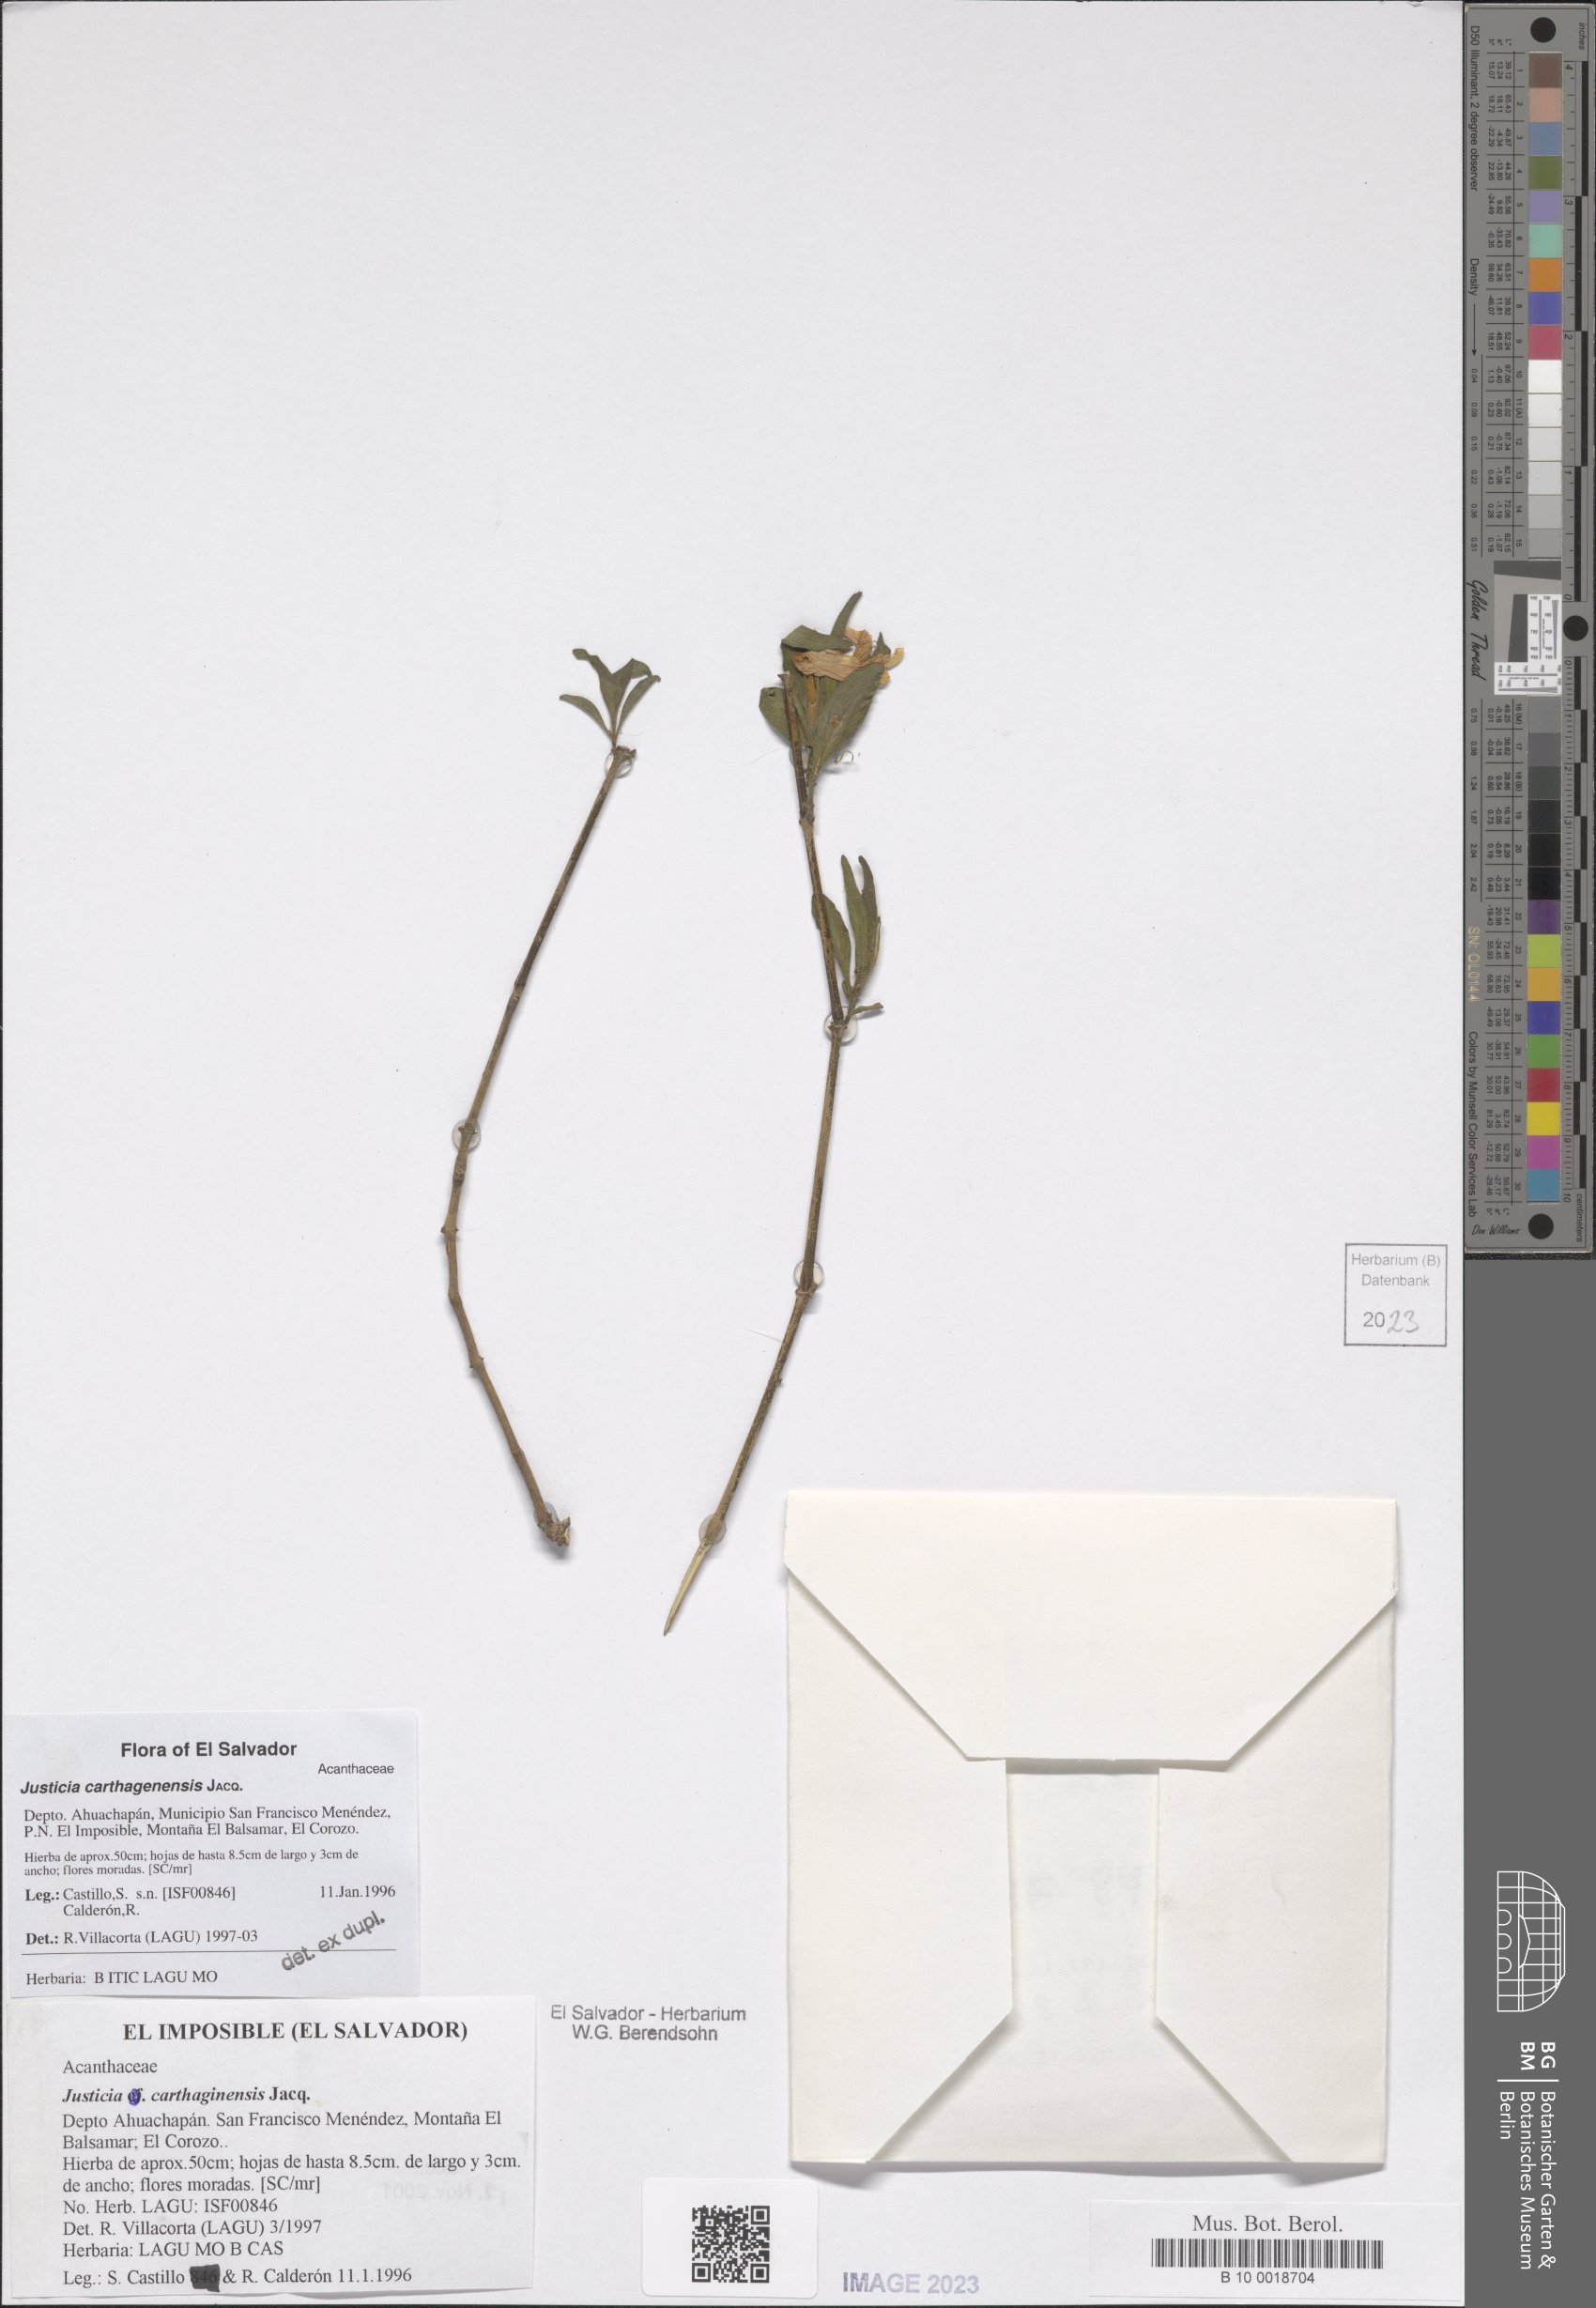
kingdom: Plantae
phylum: Tracheophyta
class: Magnoliopsida
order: Lamiales
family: Acanthaceae
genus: Justicia
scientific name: Justicia carthagenensis
